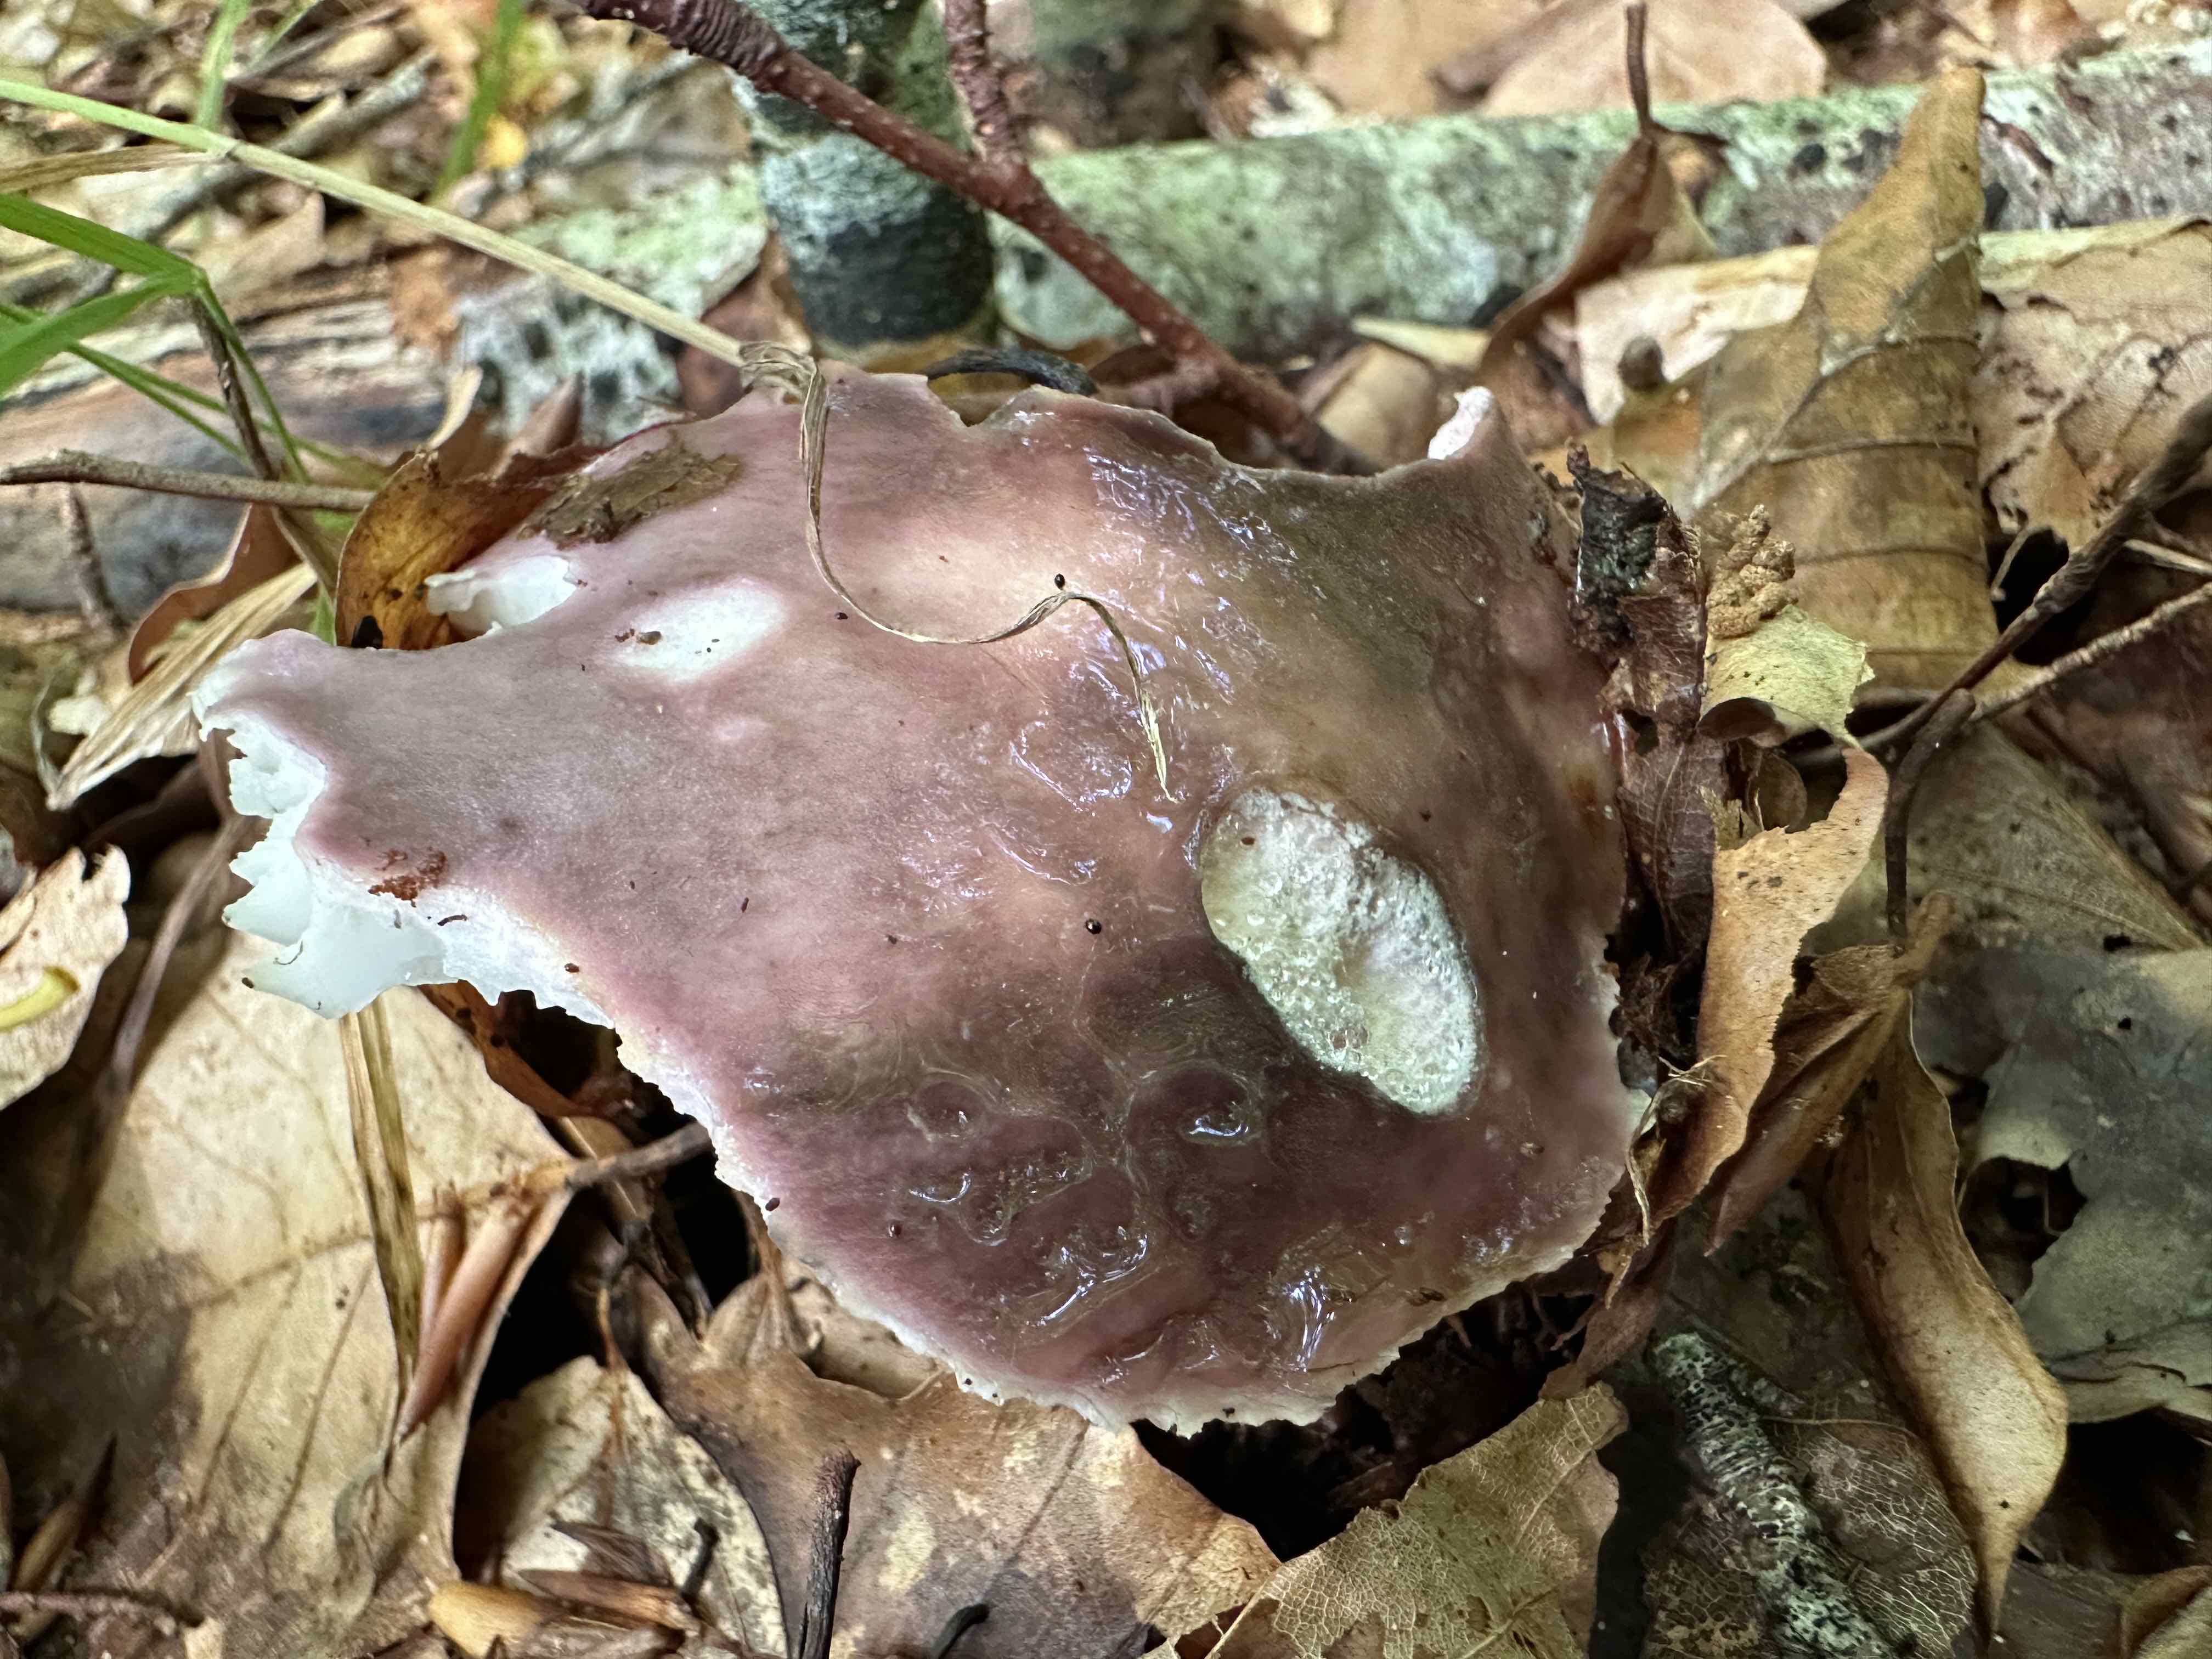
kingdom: Fungi
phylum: Basidiomycota
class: Agaricomycetes
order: Russulales
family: Russulaceae
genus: Russula
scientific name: Russula cyanoxantha
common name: broget skørhat
